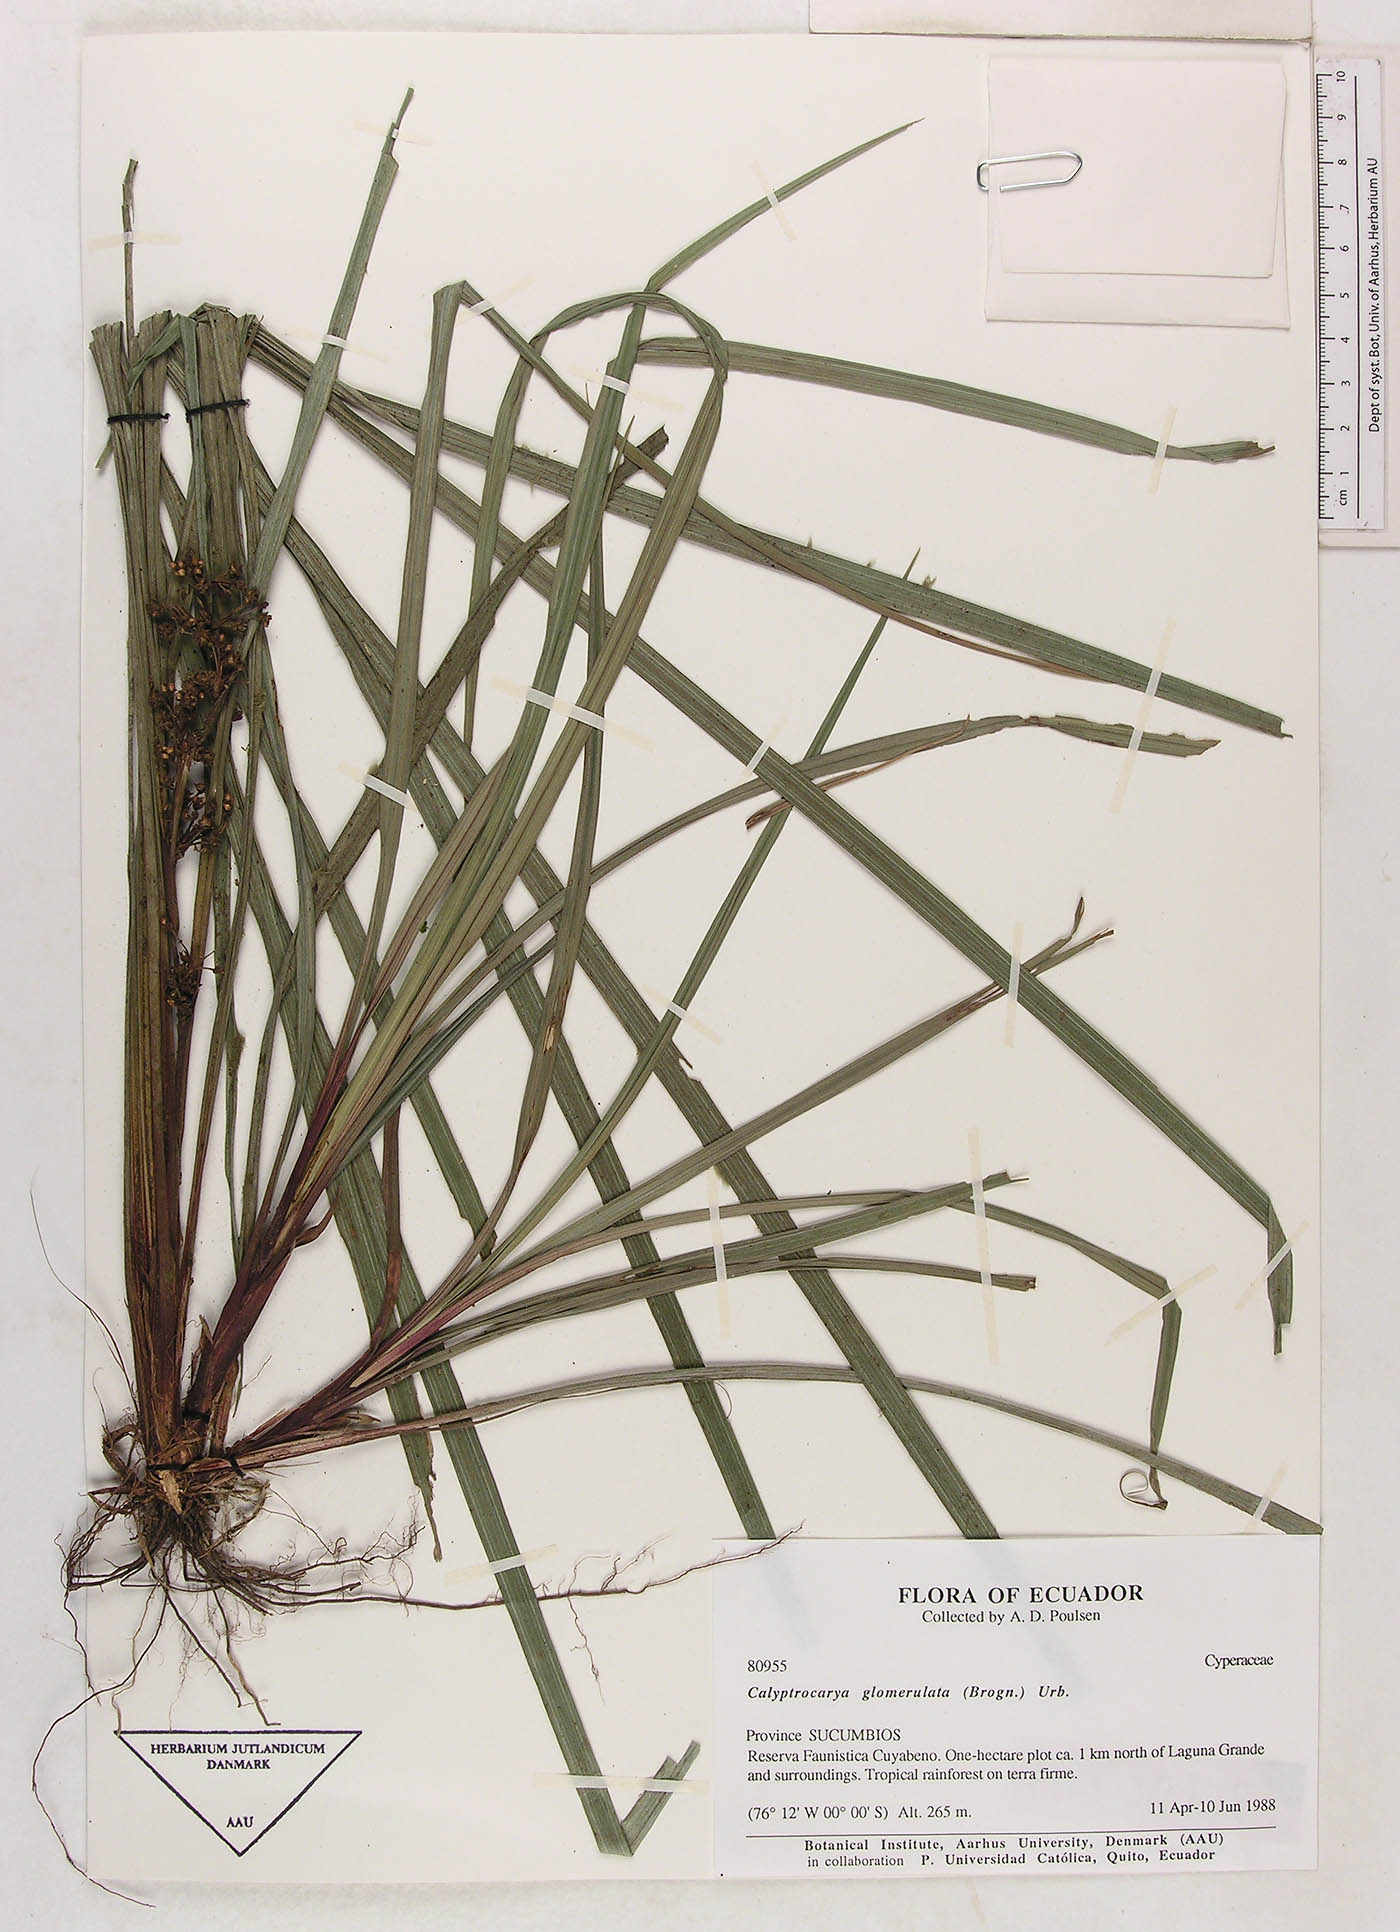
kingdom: Plantae
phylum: Tracheophyta
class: Liliopsida
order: Poales
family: Cyperaceae
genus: Calyptrocarya
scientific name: Calyptrocarya glomerulata
